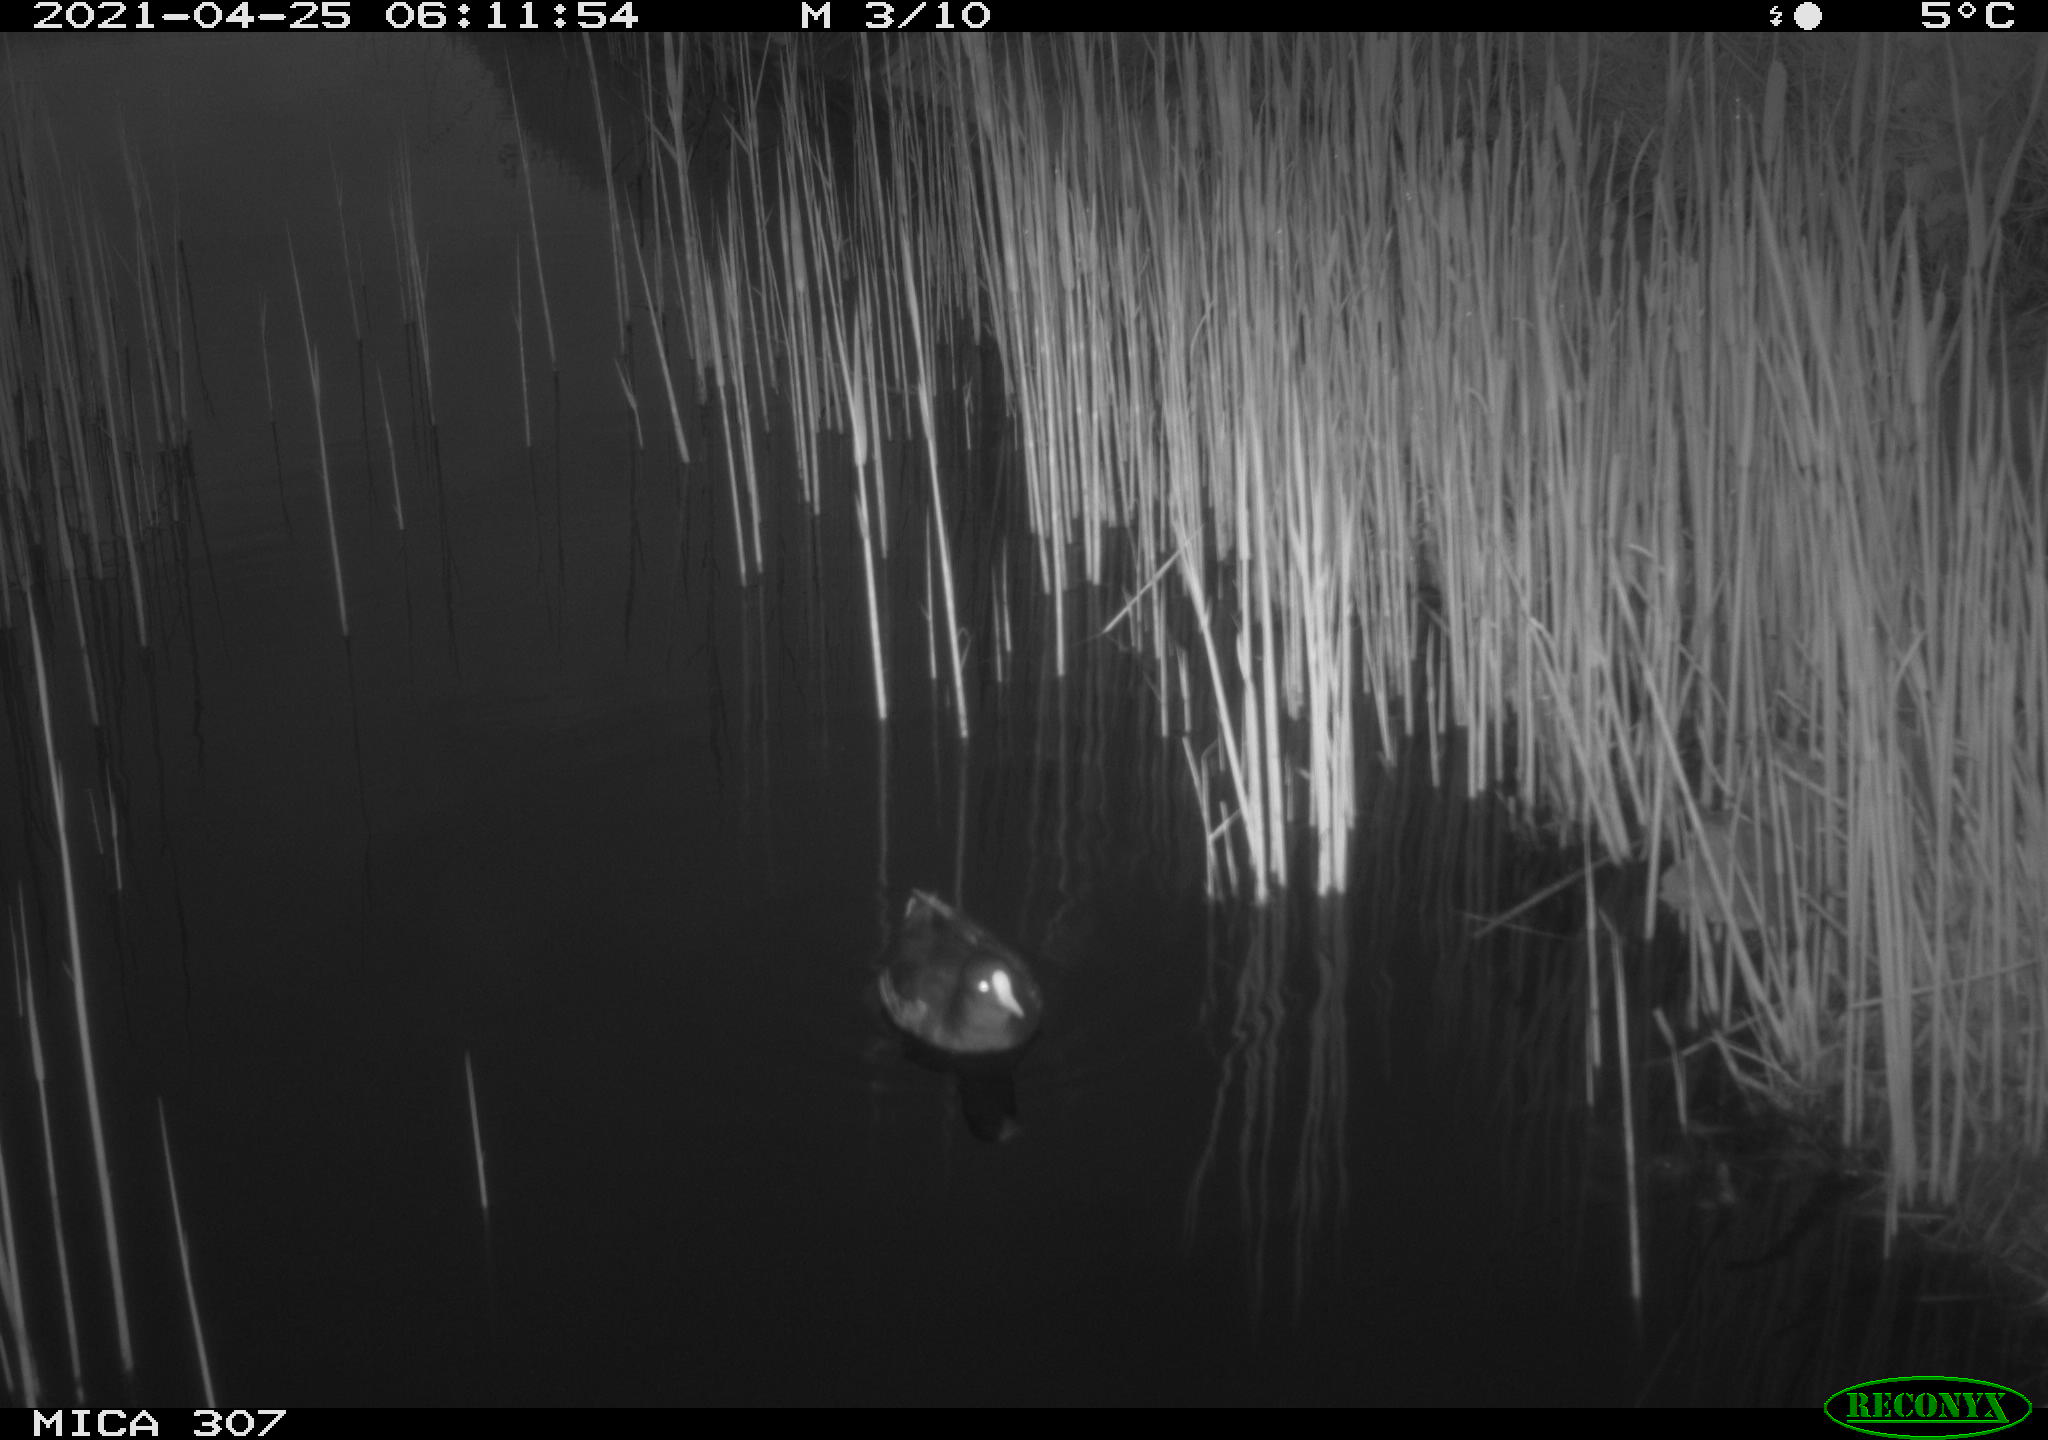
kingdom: Animalia
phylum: Chordata
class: Aves
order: Gruiformes
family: Rallidae
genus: Gallinula
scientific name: Gallinula chloropus
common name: Common moorhen
